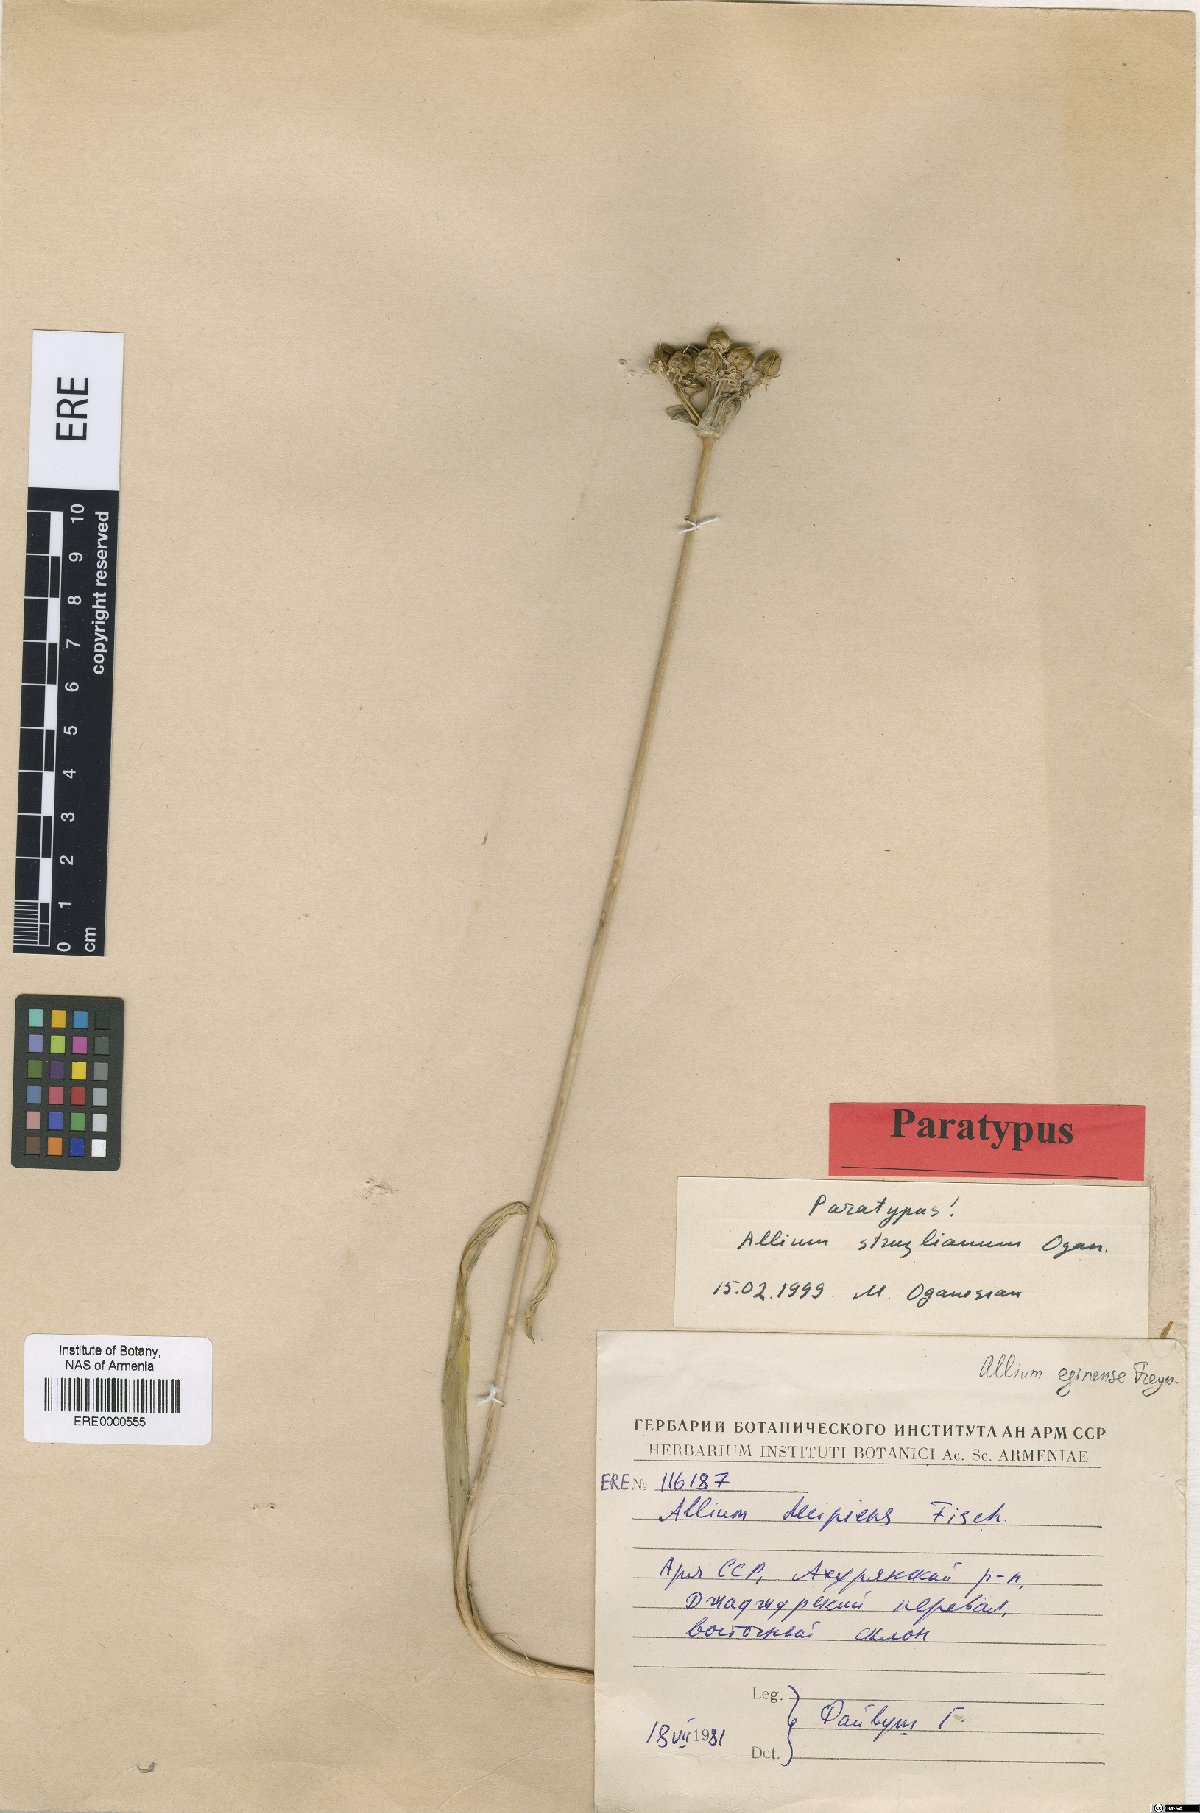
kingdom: Plantae
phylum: Tracheophyta
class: Liliopsida
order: Asparagales
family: Amaryllidaceae
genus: Allium
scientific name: Allium struzlianum
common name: Struzl's onion
